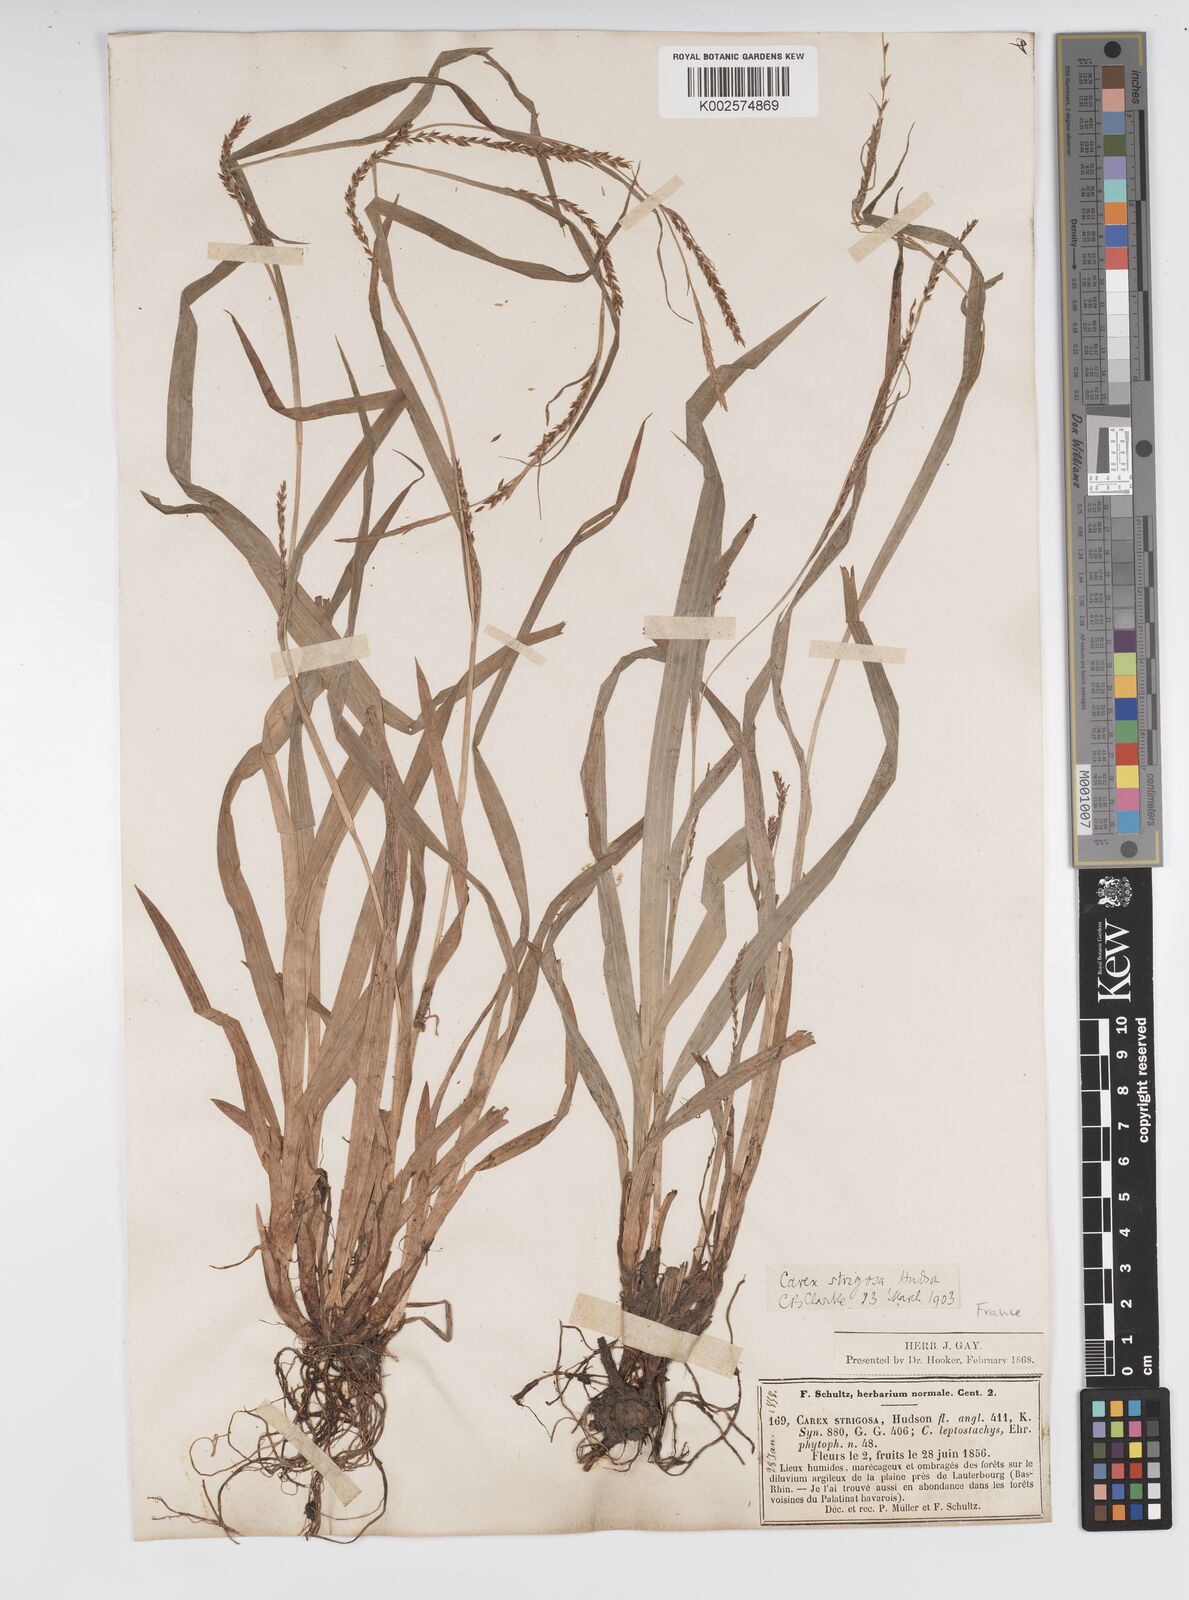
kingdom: Plantae
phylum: Tracheophyta
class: Liliopsida
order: Poales
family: Cyperaceae
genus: Carex
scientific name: Carex strigosa
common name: Thin-spiked wood-sedge
